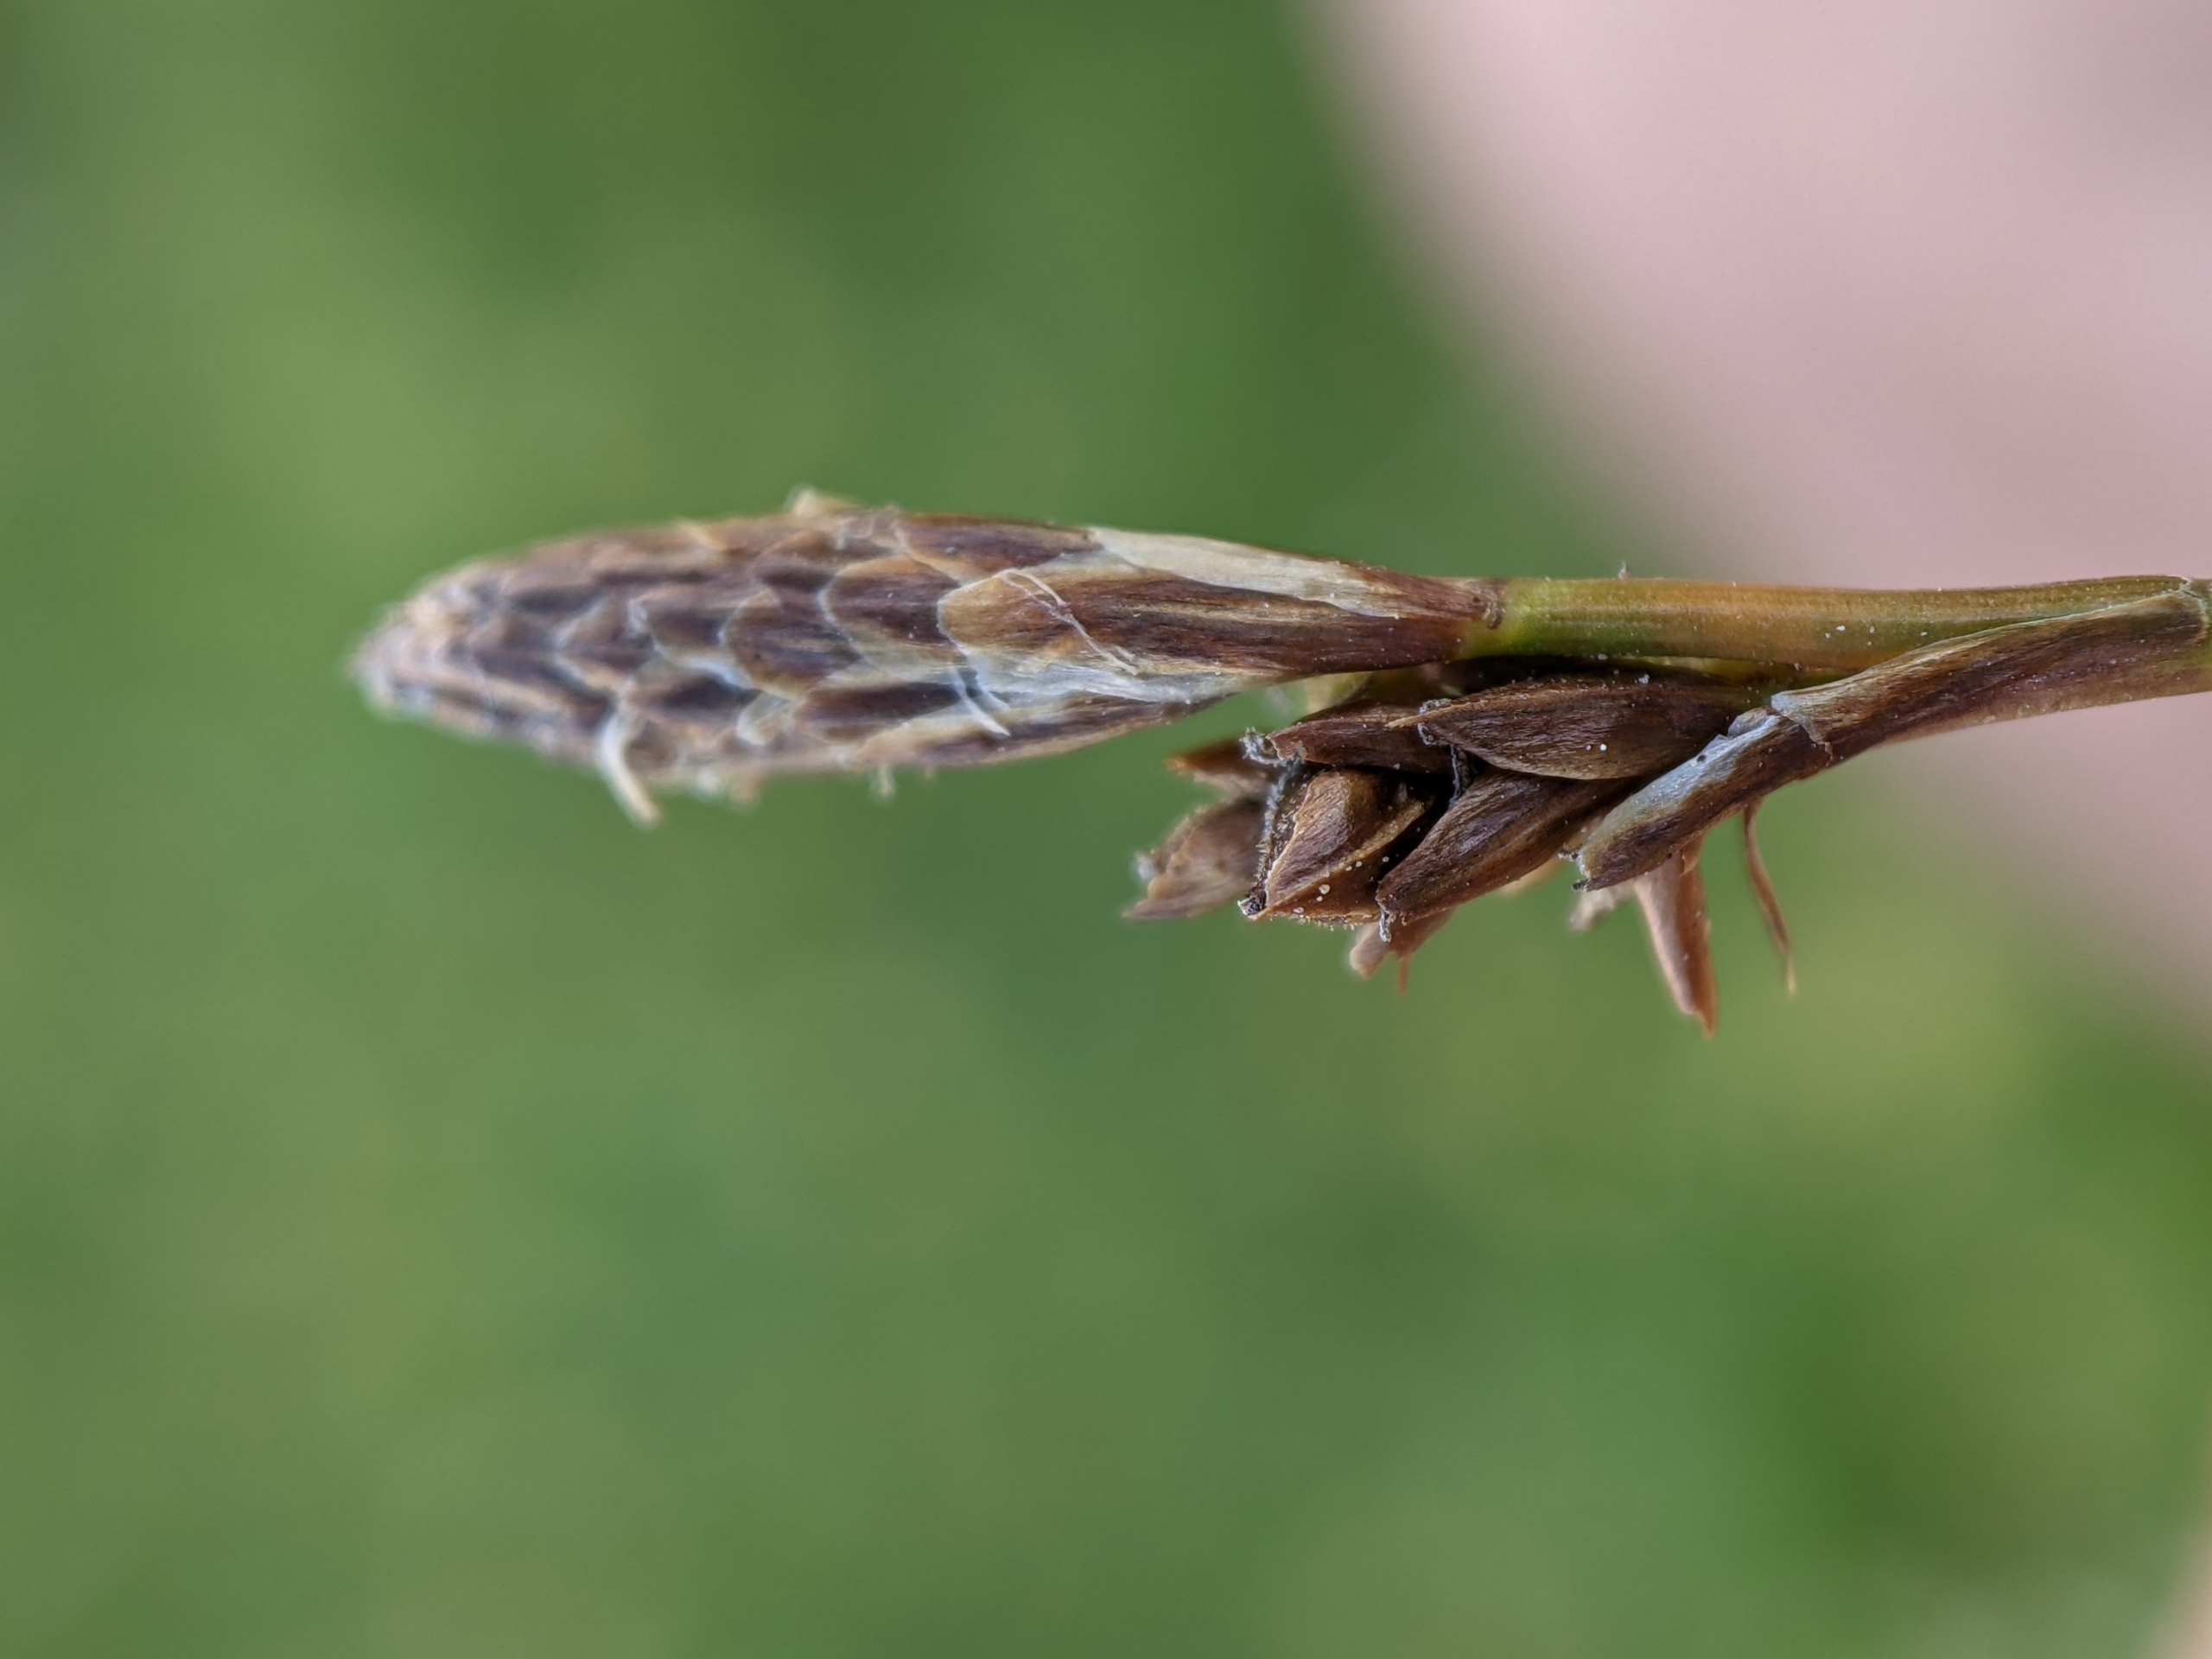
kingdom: Plantae
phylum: Tracheophyta
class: Liliopsida
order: Poales
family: Cyperaceae
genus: Carex
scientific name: Carex caryophyllea
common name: Vår-star
